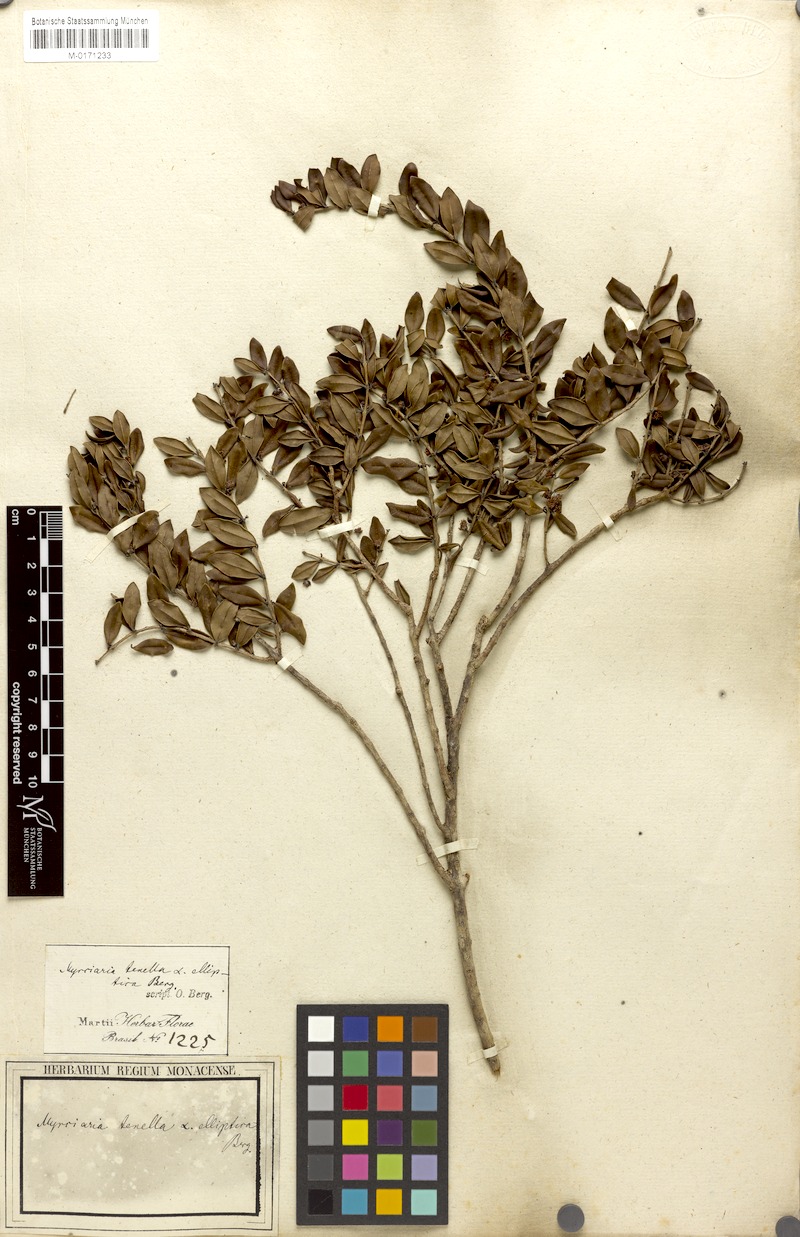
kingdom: Plantae
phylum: Tracheophyta
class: Magnoliopsida
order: Myrtales
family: Myrtaceae
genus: Myrciaria
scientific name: Myrciaria tenella
